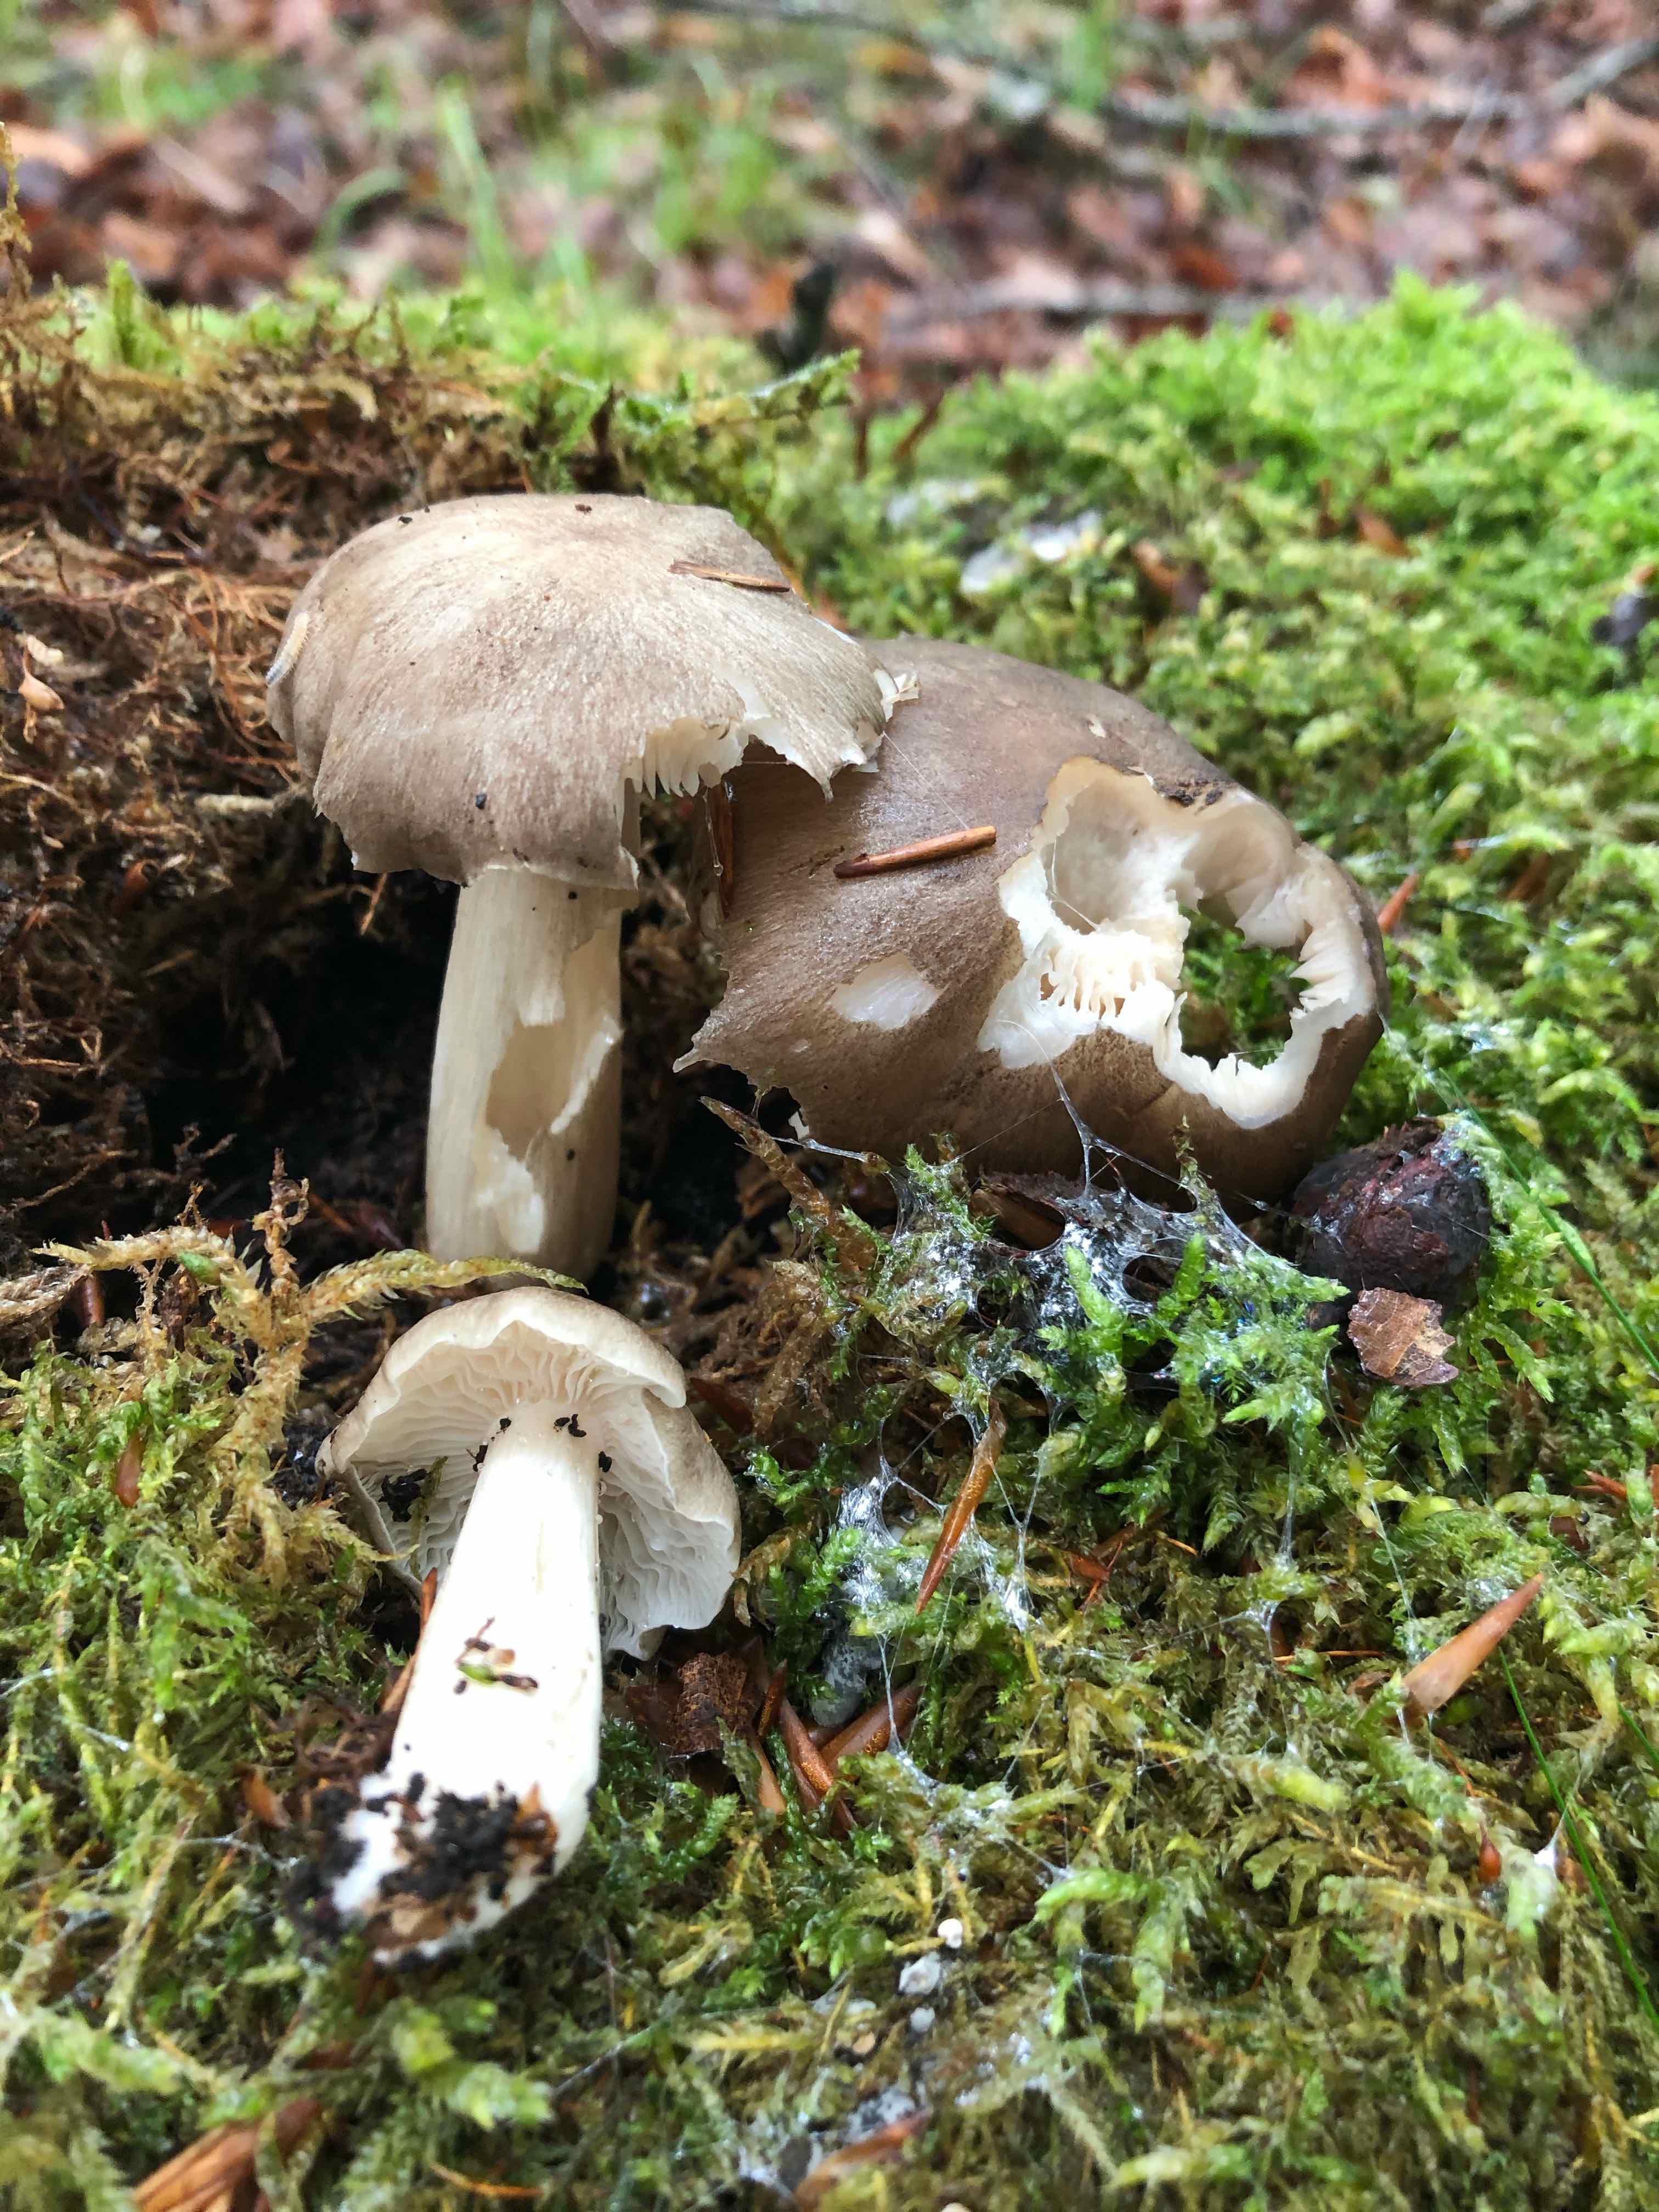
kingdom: Fungi
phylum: Basidiomycota
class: Agaricomycetes
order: Agaricales
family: Tricholomataceae
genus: Megacollybia
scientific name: Megacollybia platyphylla
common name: bredbladet væbnerhat
